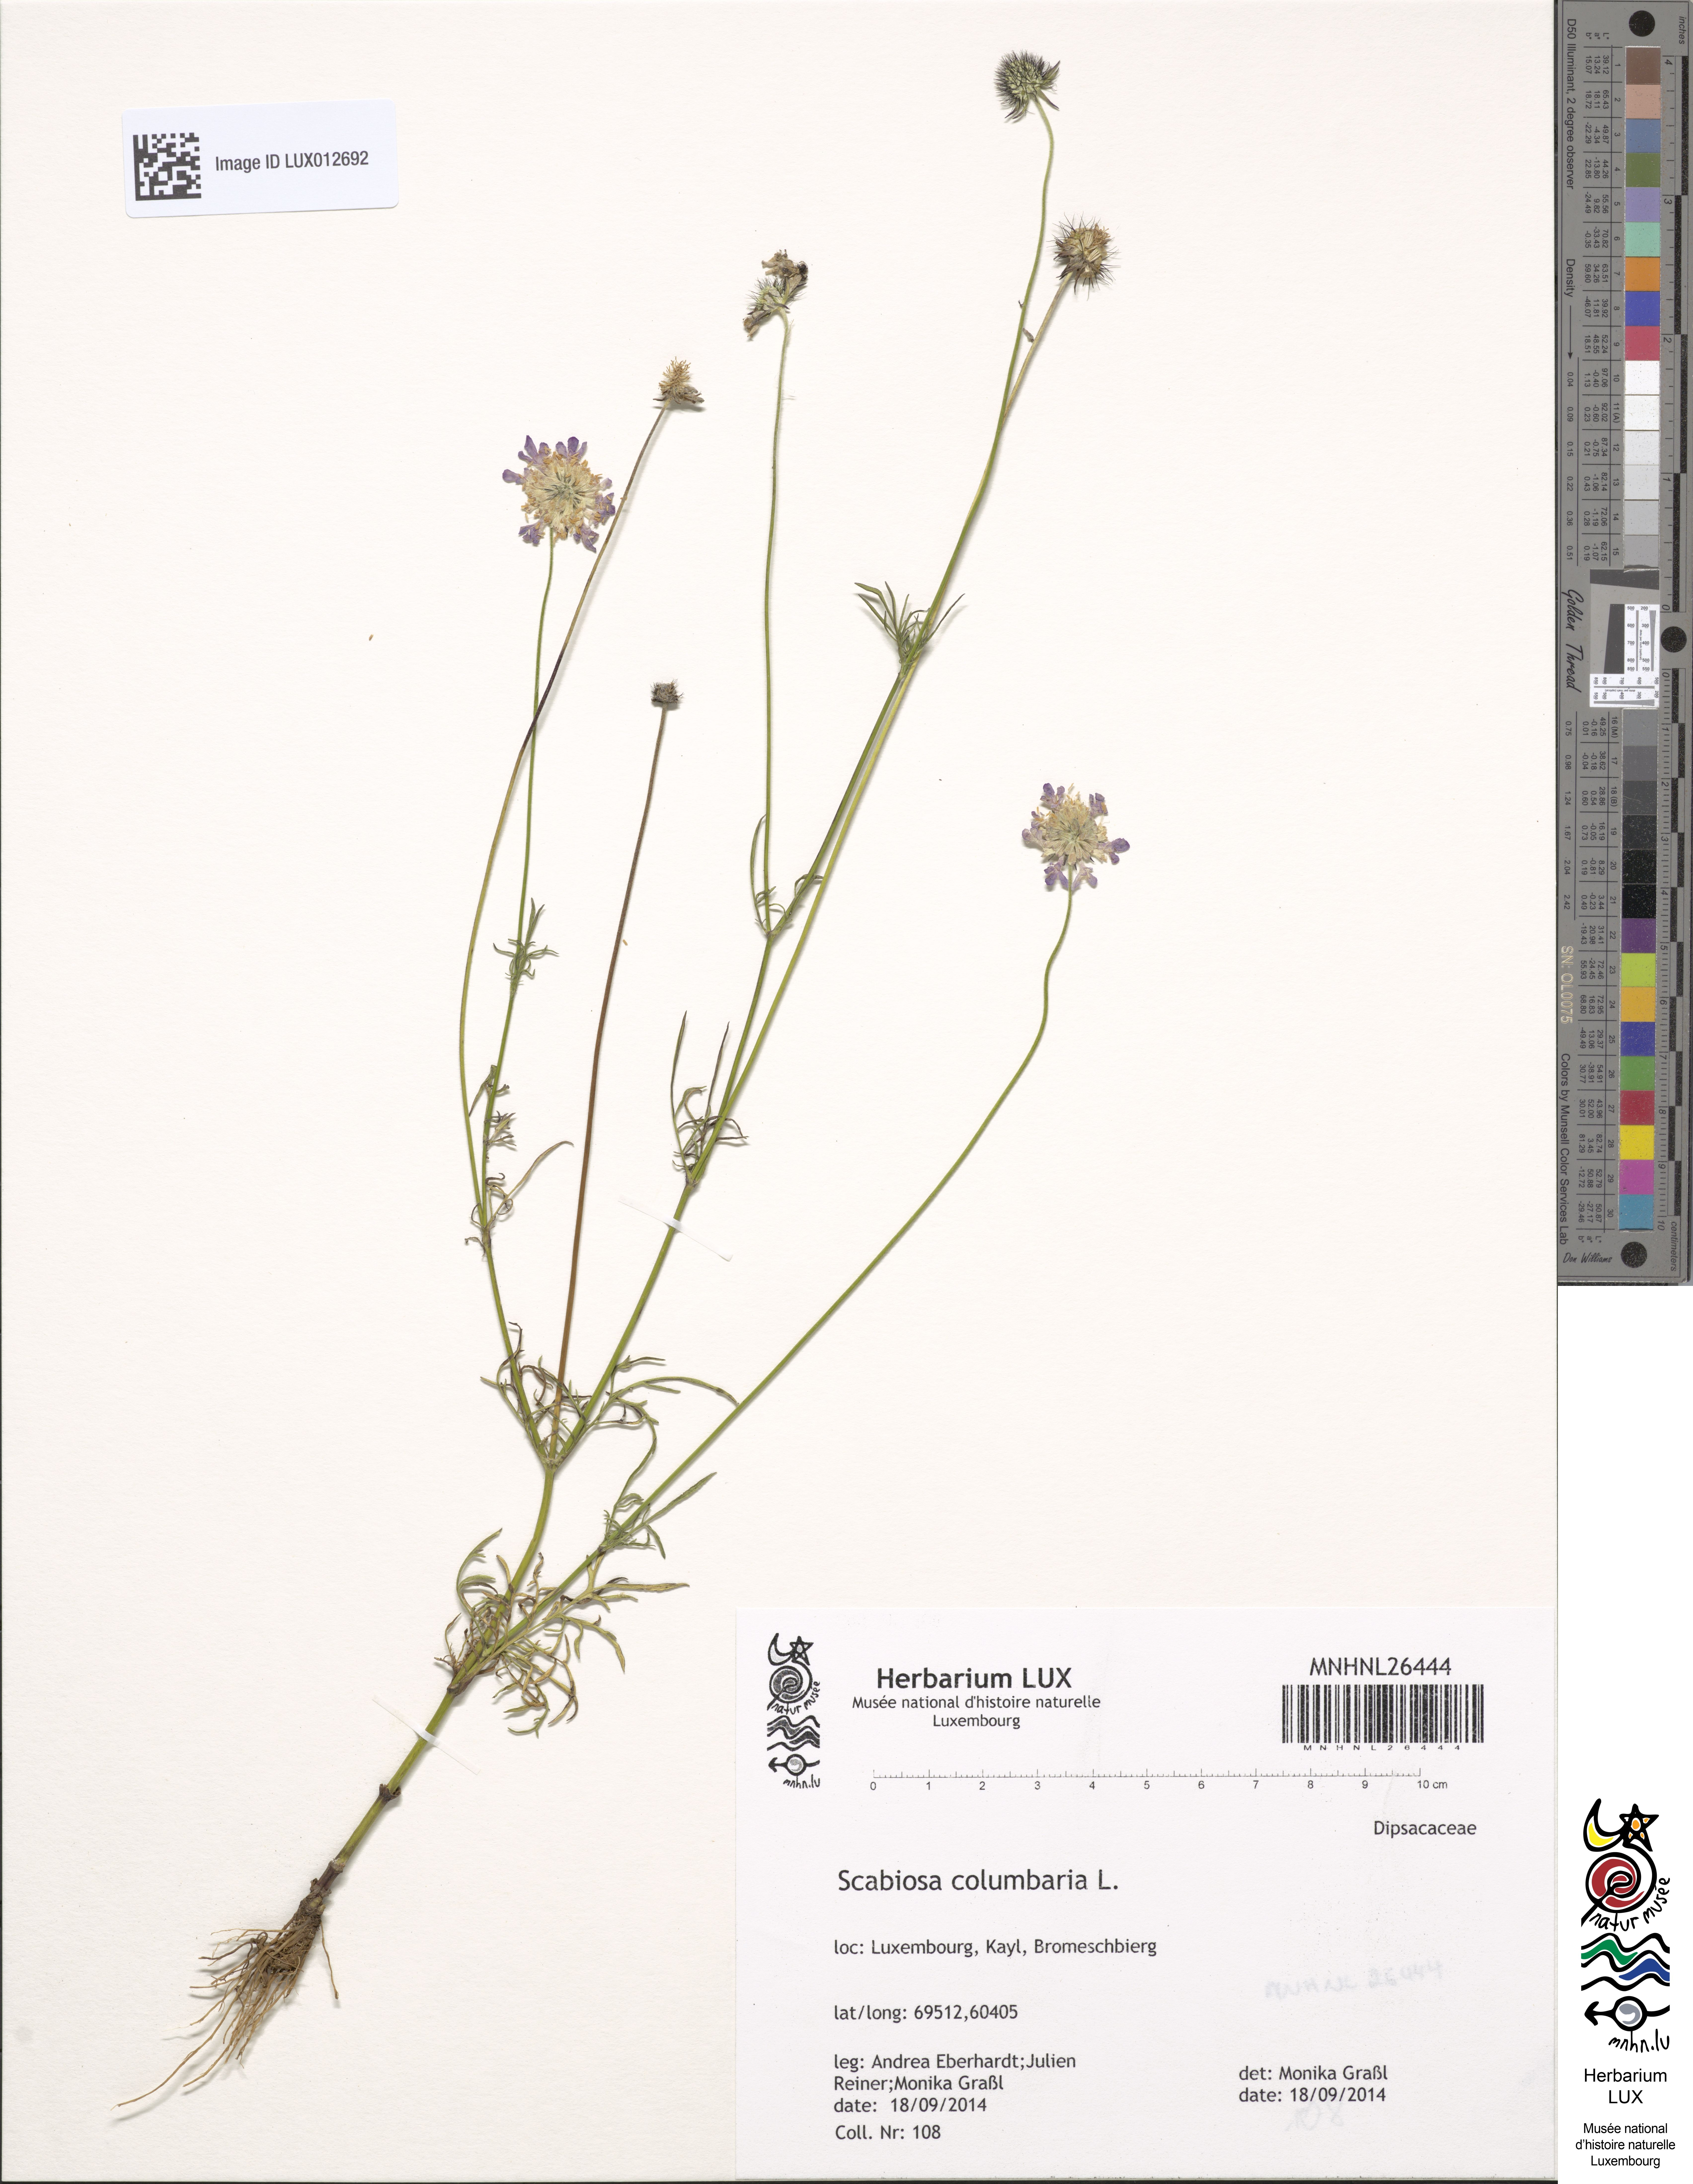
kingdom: Plantae
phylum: Tracheophyta
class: Magnoliopsida
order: Dipsacales
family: Caprifoliaceae
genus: Scabiosa
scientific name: Scabiosa columbaria
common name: Small scabious
